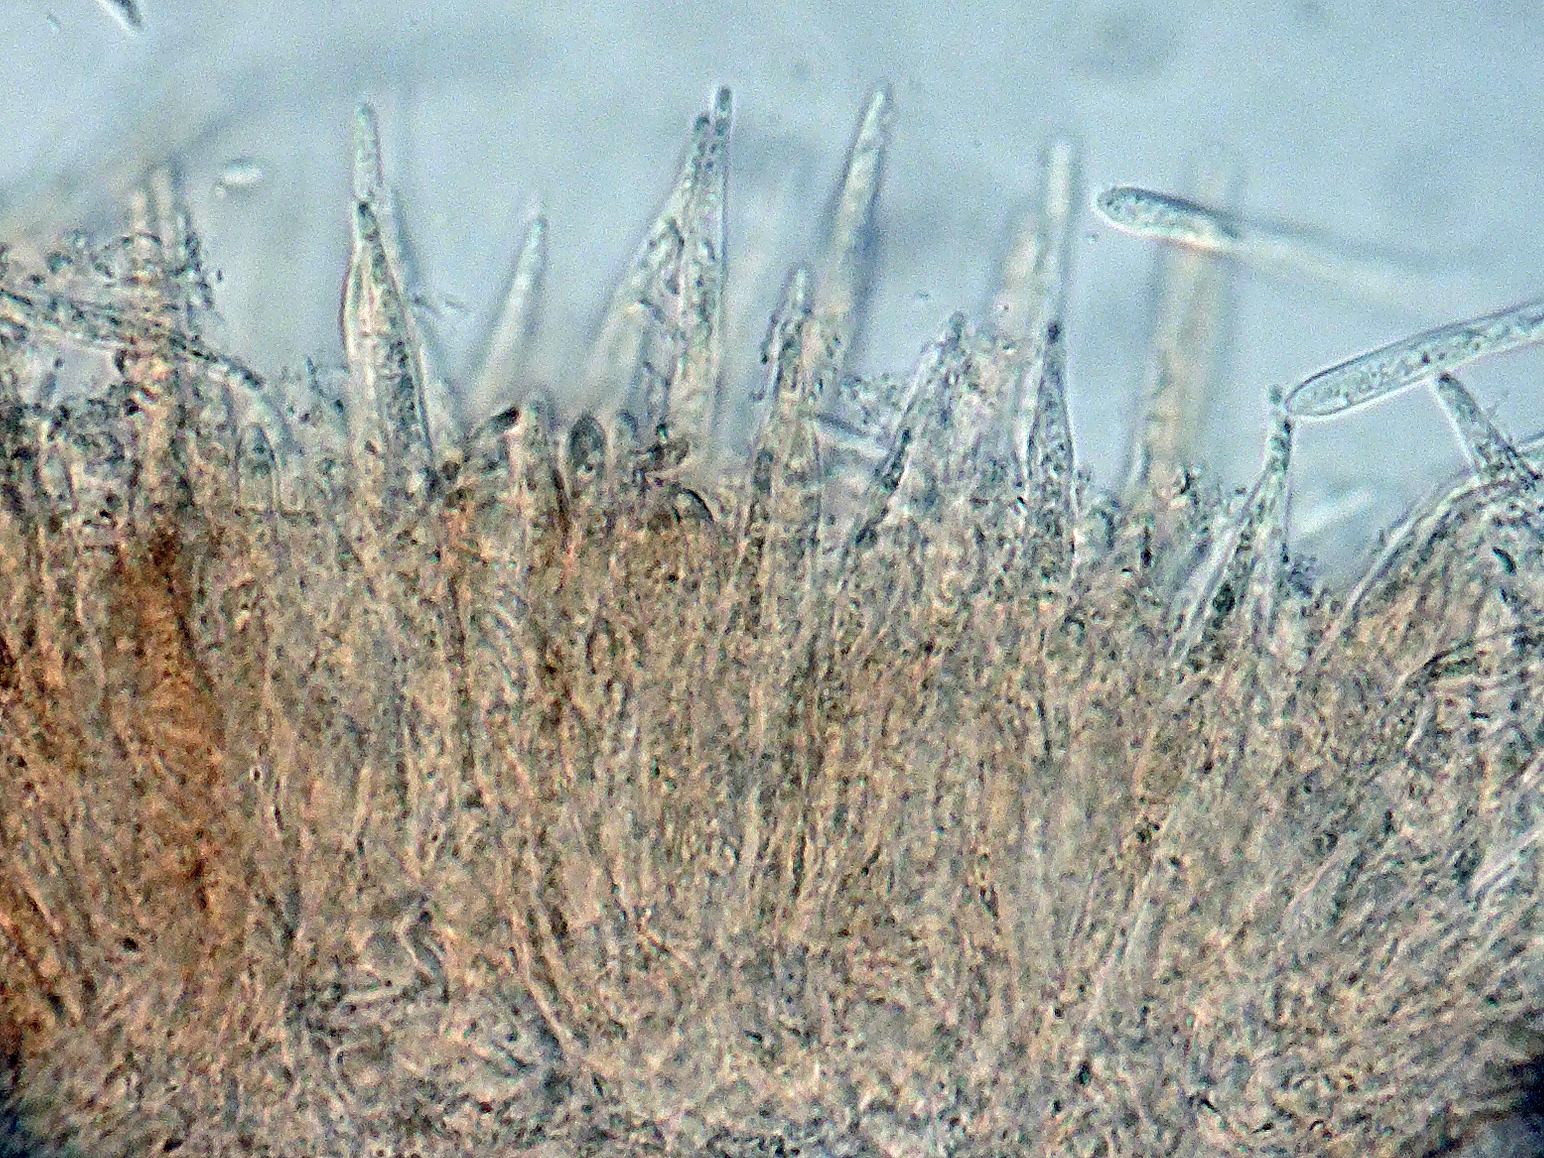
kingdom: Fungi
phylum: Ascomycota
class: Leotiomycetes
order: Helotiales
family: Lachnaceae
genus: Lachnum
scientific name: Lachnum carneolum
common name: kødfarvet frynseskive
